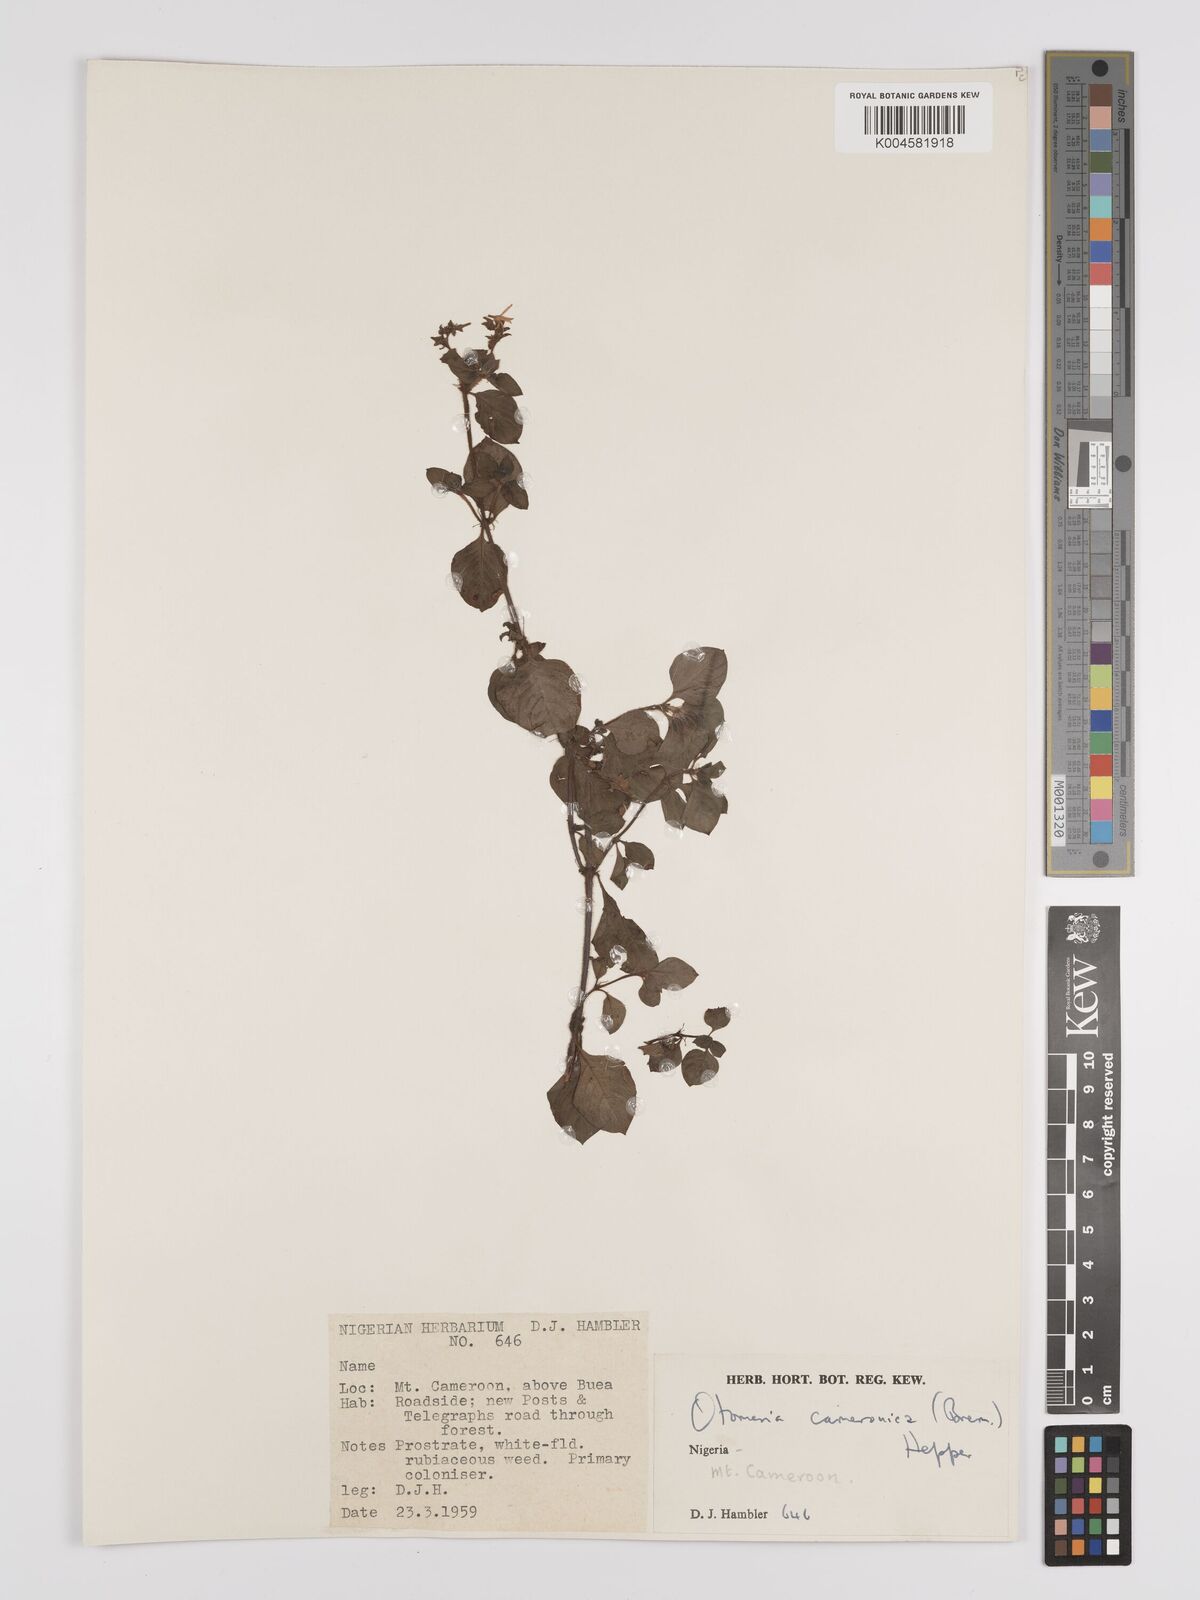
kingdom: Plantae
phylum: Tracheophyta
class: Magnoliopsida
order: Gentianales
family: Rubiaceae
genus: Otomeria
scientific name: Otomeria cameronica
